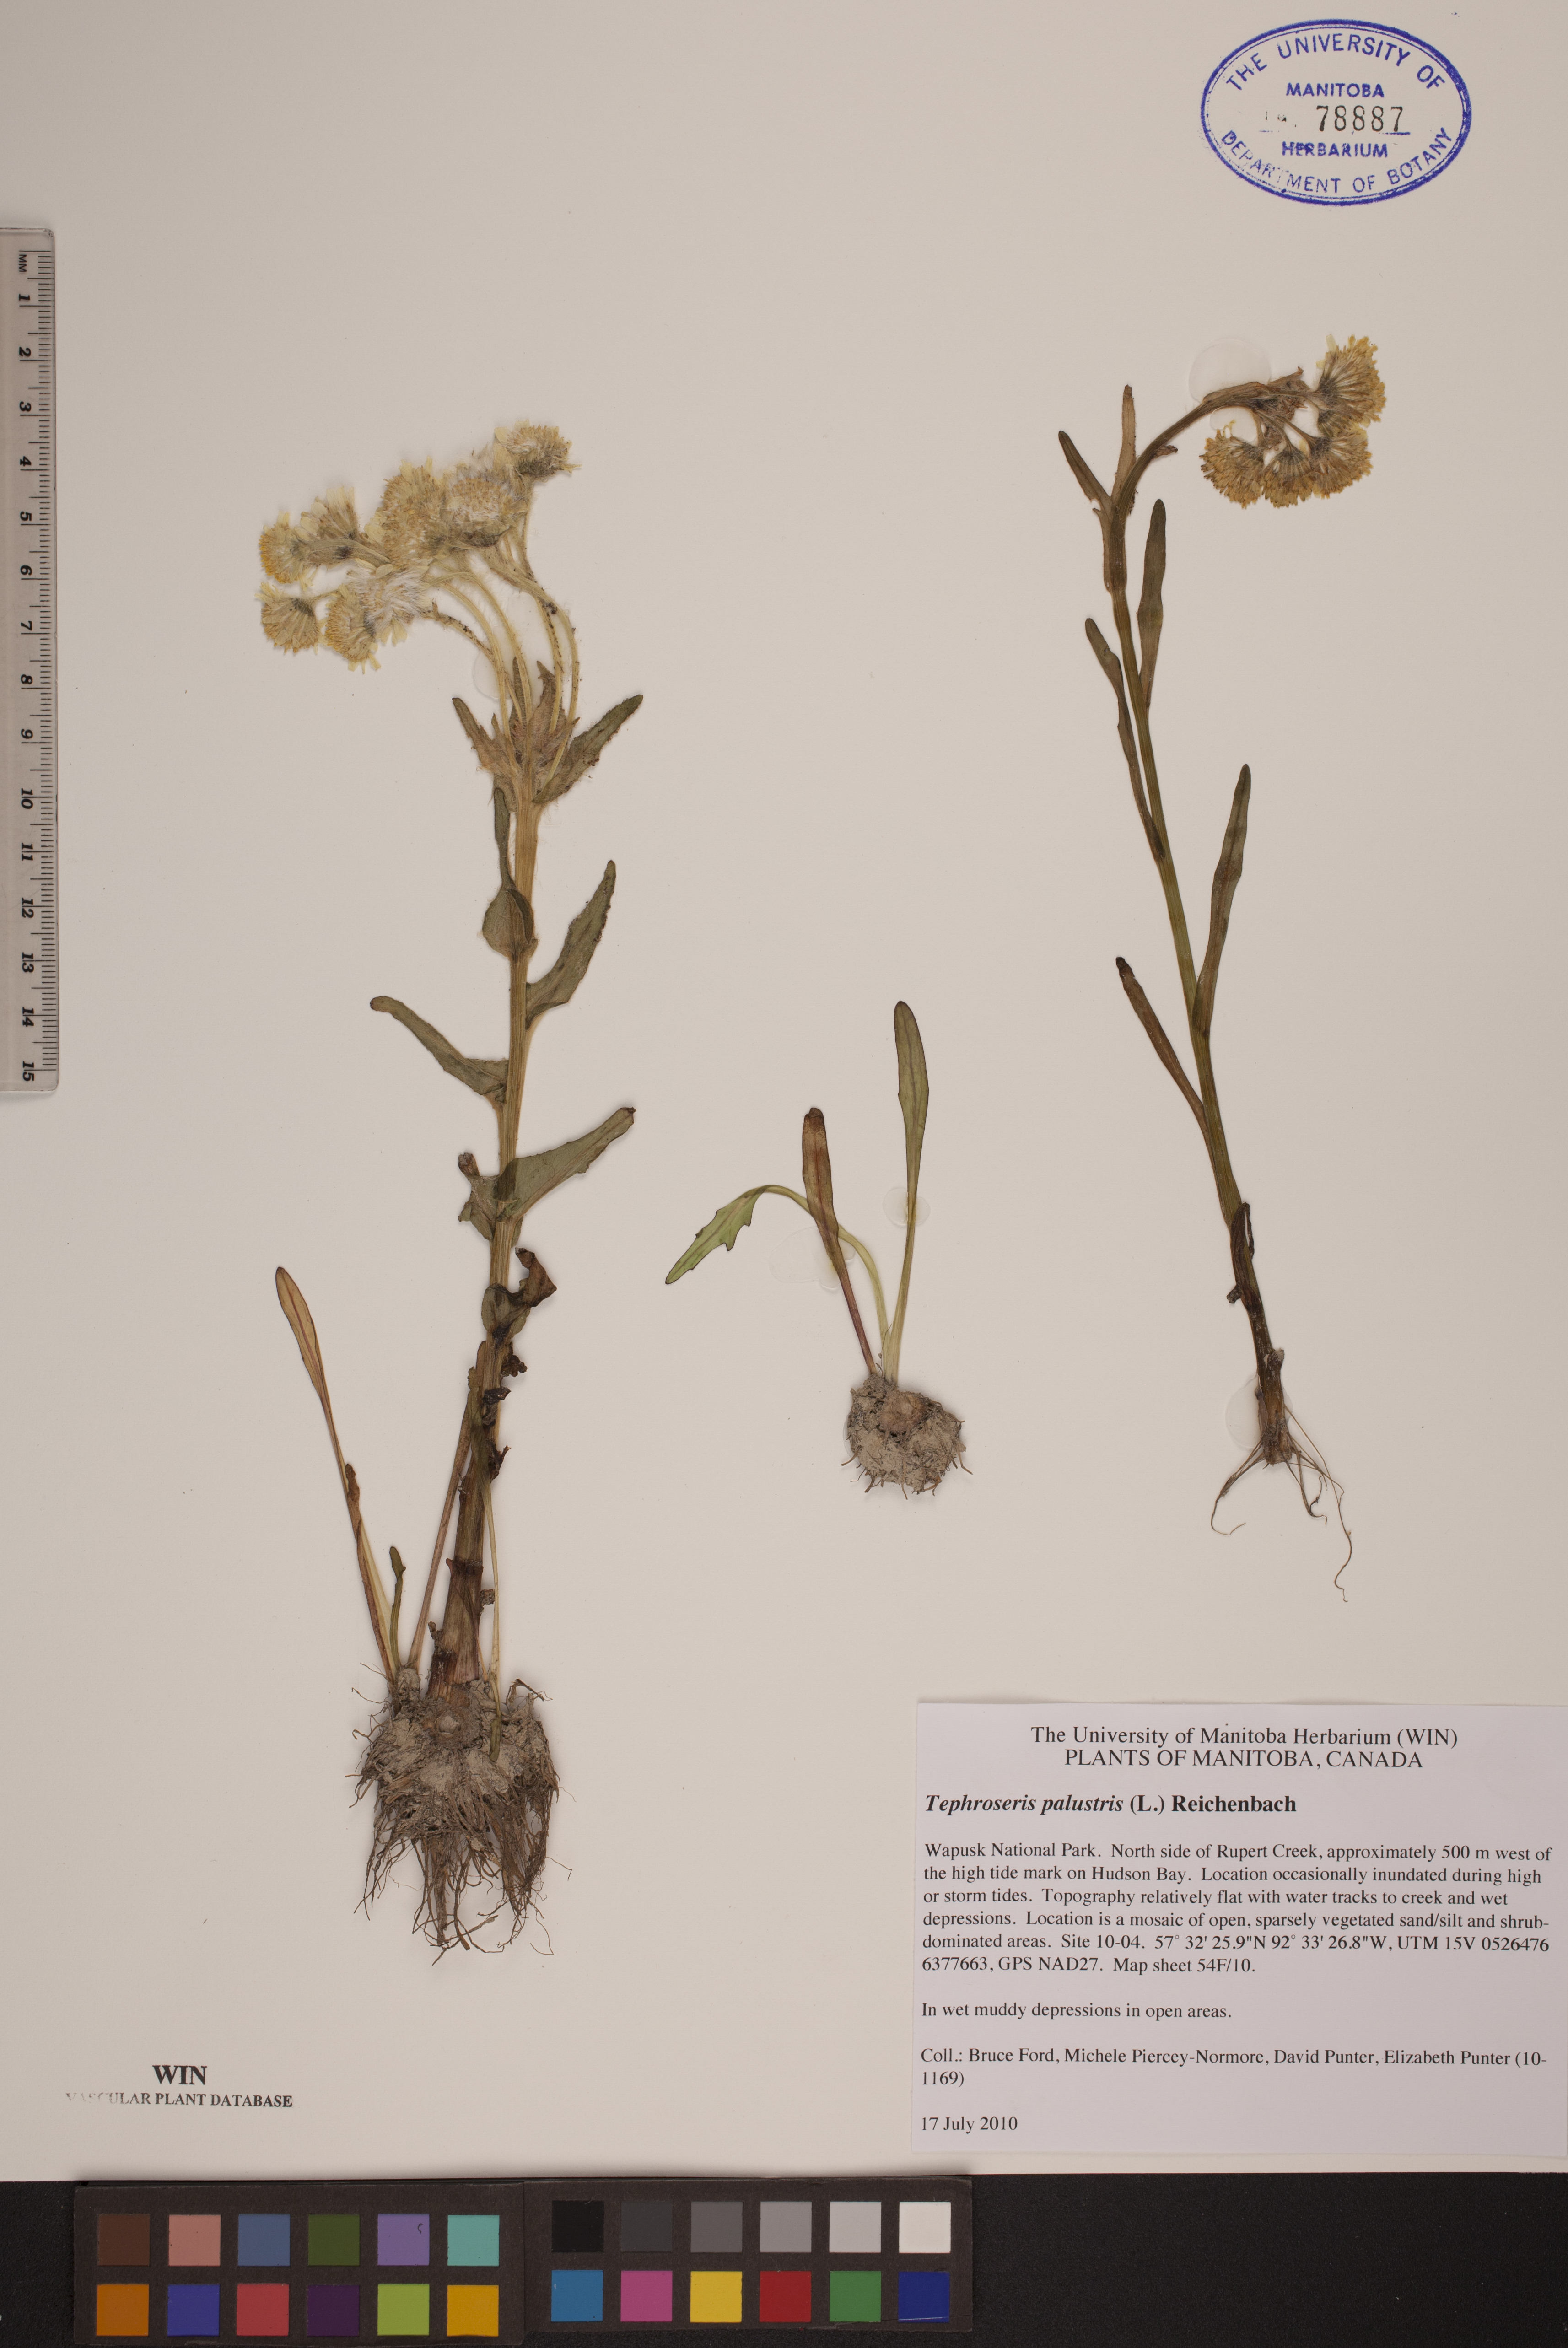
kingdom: Plantae
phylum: Tracheophyta
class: Magnoliopsida
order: Asterales
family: Asteraceae
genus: Tephroseris
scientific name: Tephroseris palustris
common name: Marsh fleawort
